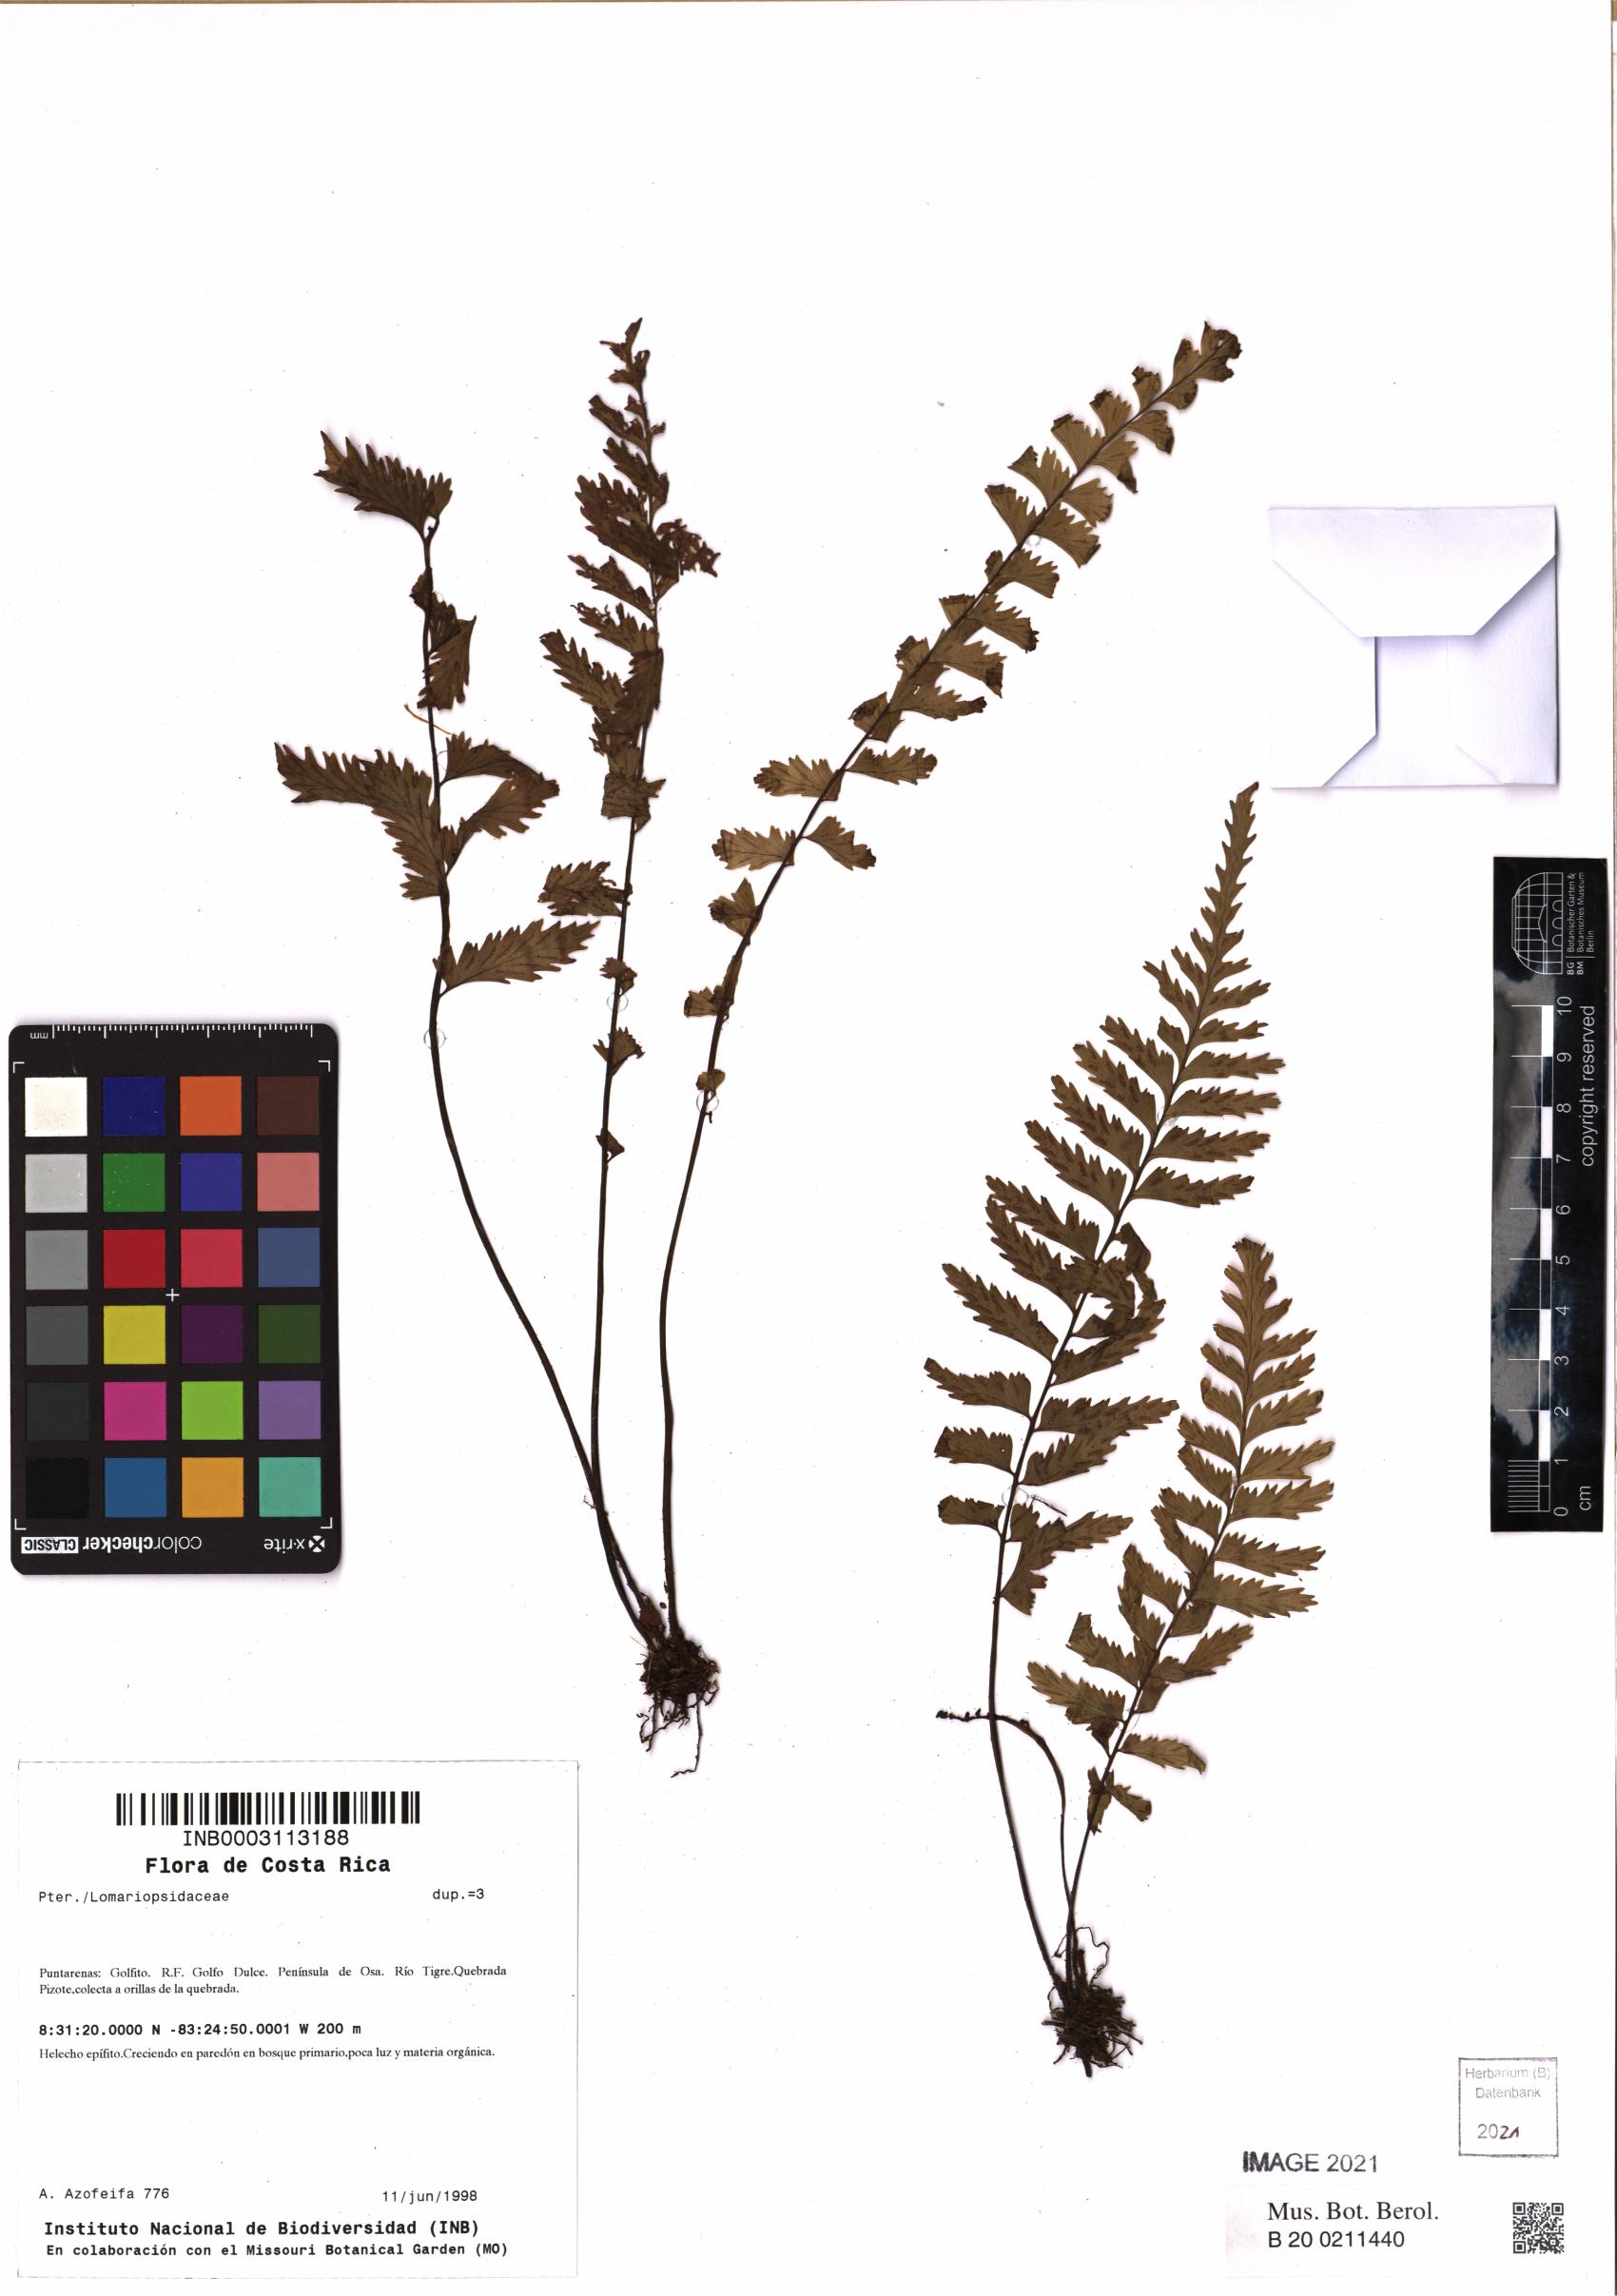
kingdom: Plantae
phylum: Tracheophyta
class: Polypodiopsida
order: Polypodiales
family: Athyriaceae
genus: Diplazium
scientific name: Diplazium cristatum
